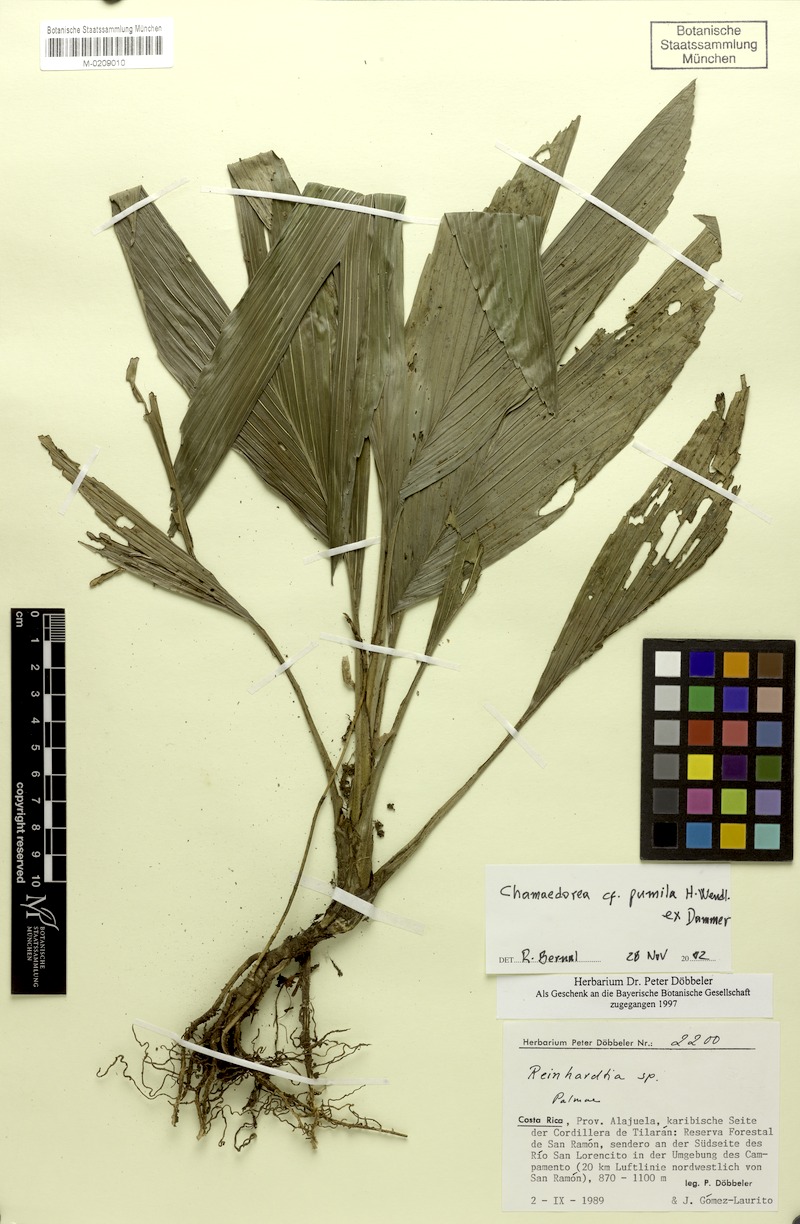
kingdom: Plantae
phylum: Tracheophyta
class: Liliopsida
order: Arecales
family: Arecaceae
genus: Chamaedorea
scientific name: Chamaedorea pumila
